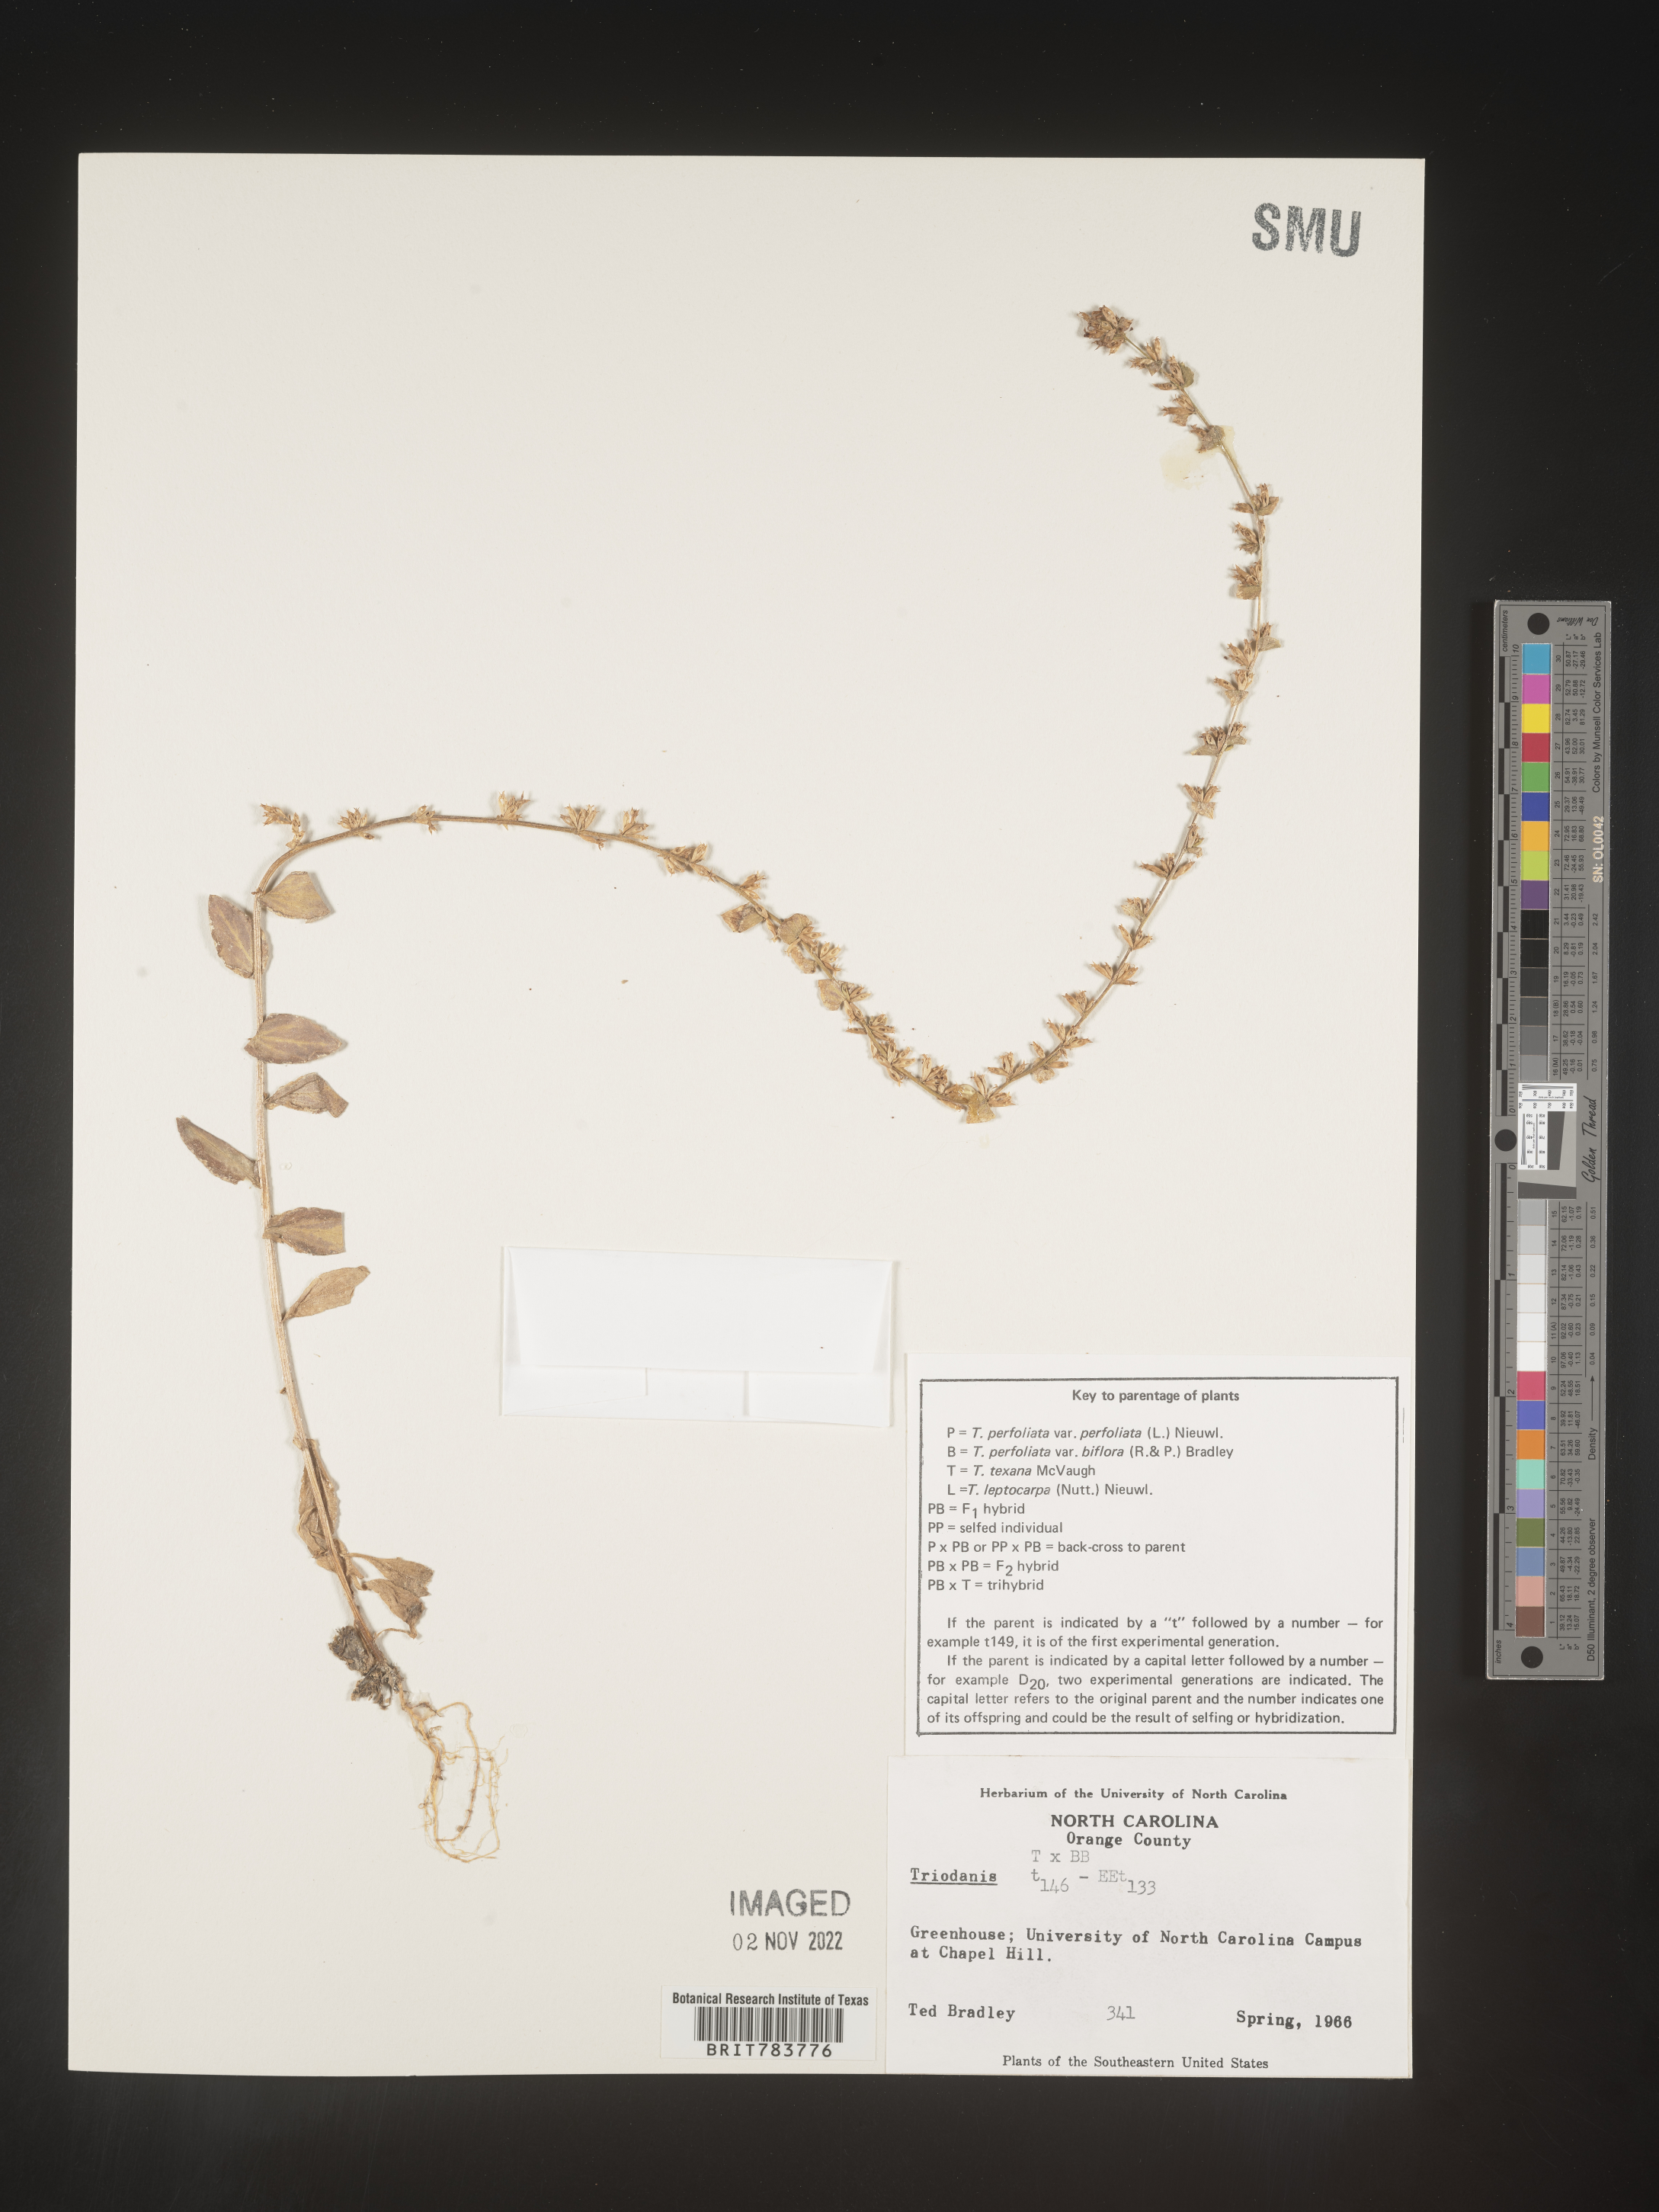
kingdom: Plantae
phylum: Tracheophyta
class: Magnoliopsida
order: Asterales
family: Campanulaceae
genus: Triodanis
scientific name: Triodanis
